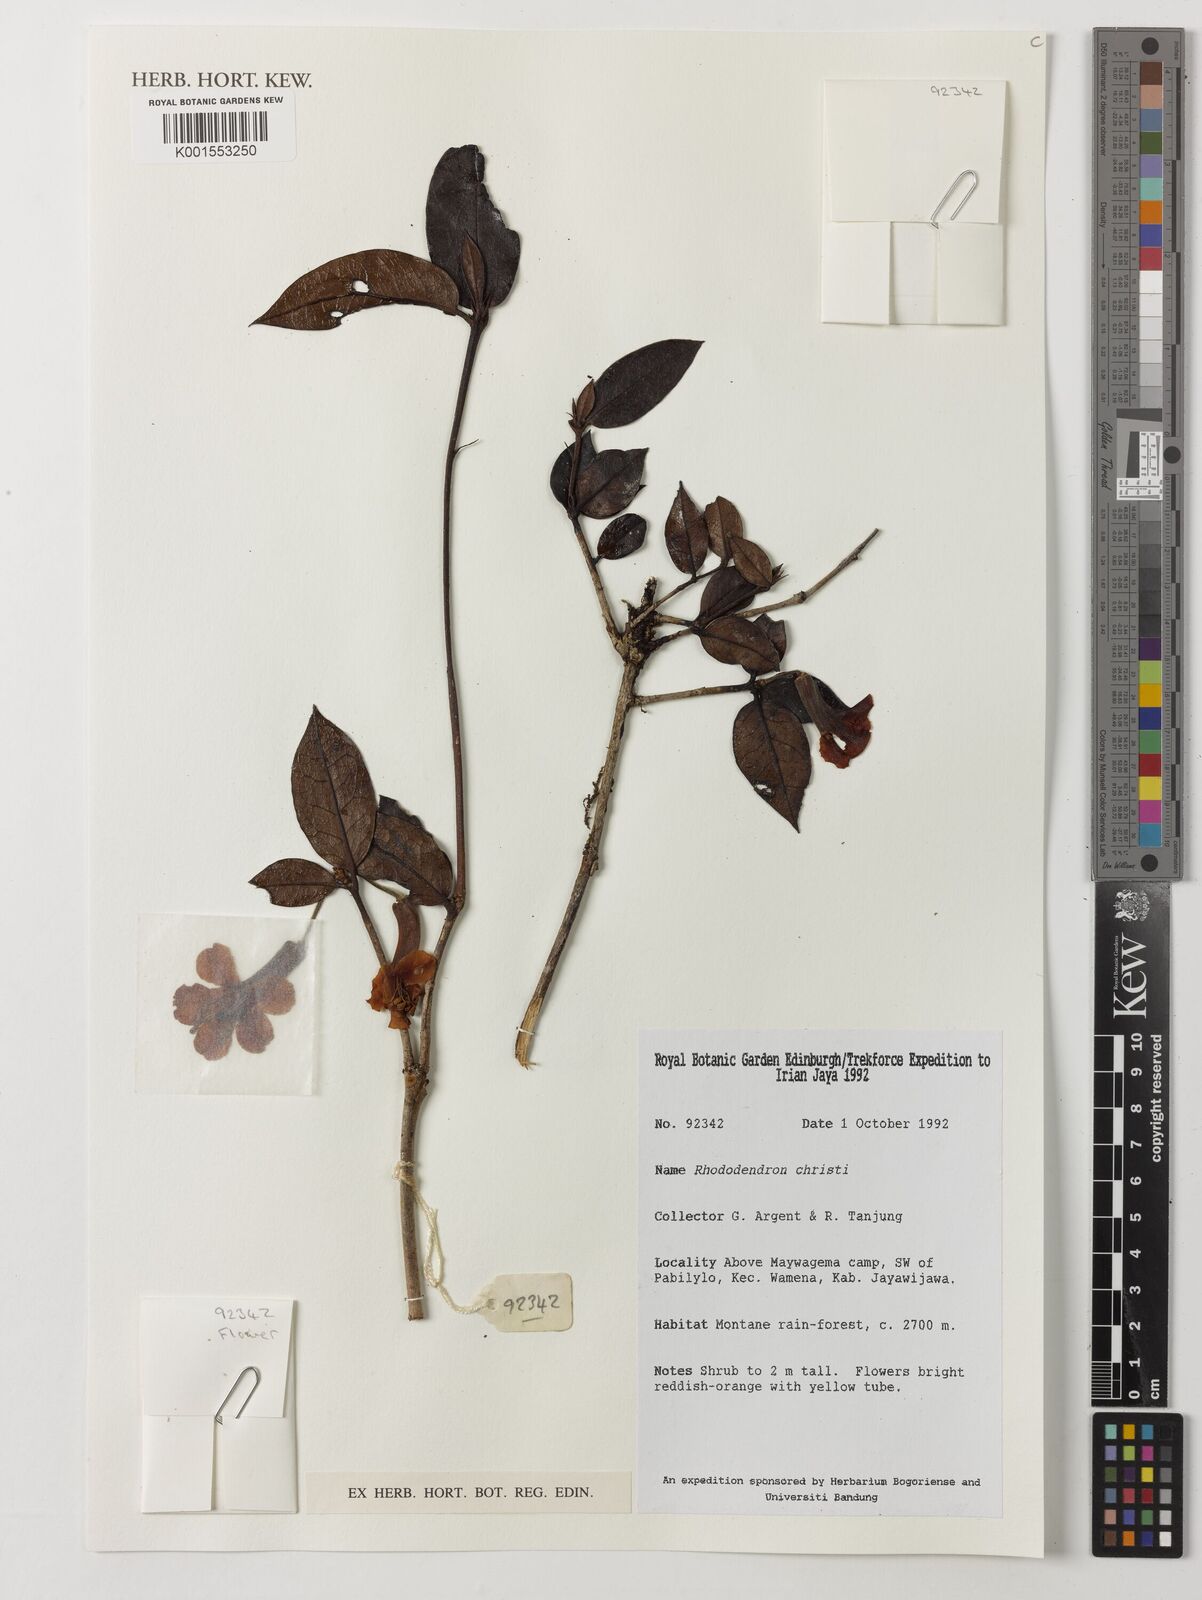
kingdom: Plantae
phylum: Tracheophyta
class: Magnoliopsida
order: Ericales
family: Ericaceae
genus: Rhododendron
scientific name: Rhododendron christi
